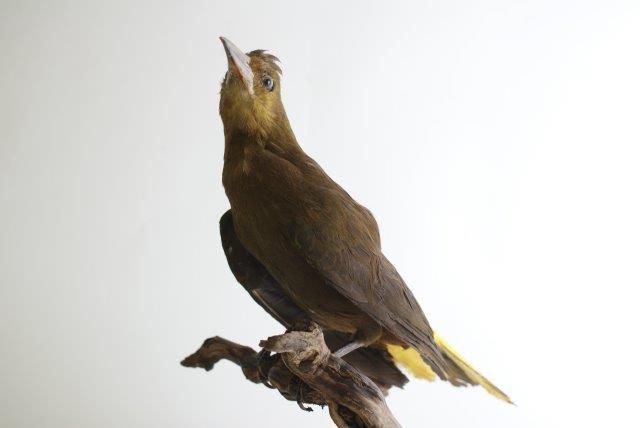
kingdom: Animalia
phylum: Chordata
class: Aves
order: Passeriformes
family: Icteridae
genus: Psarocolius
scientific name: Psarocolius montezuma
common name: Montezuma oropendola
